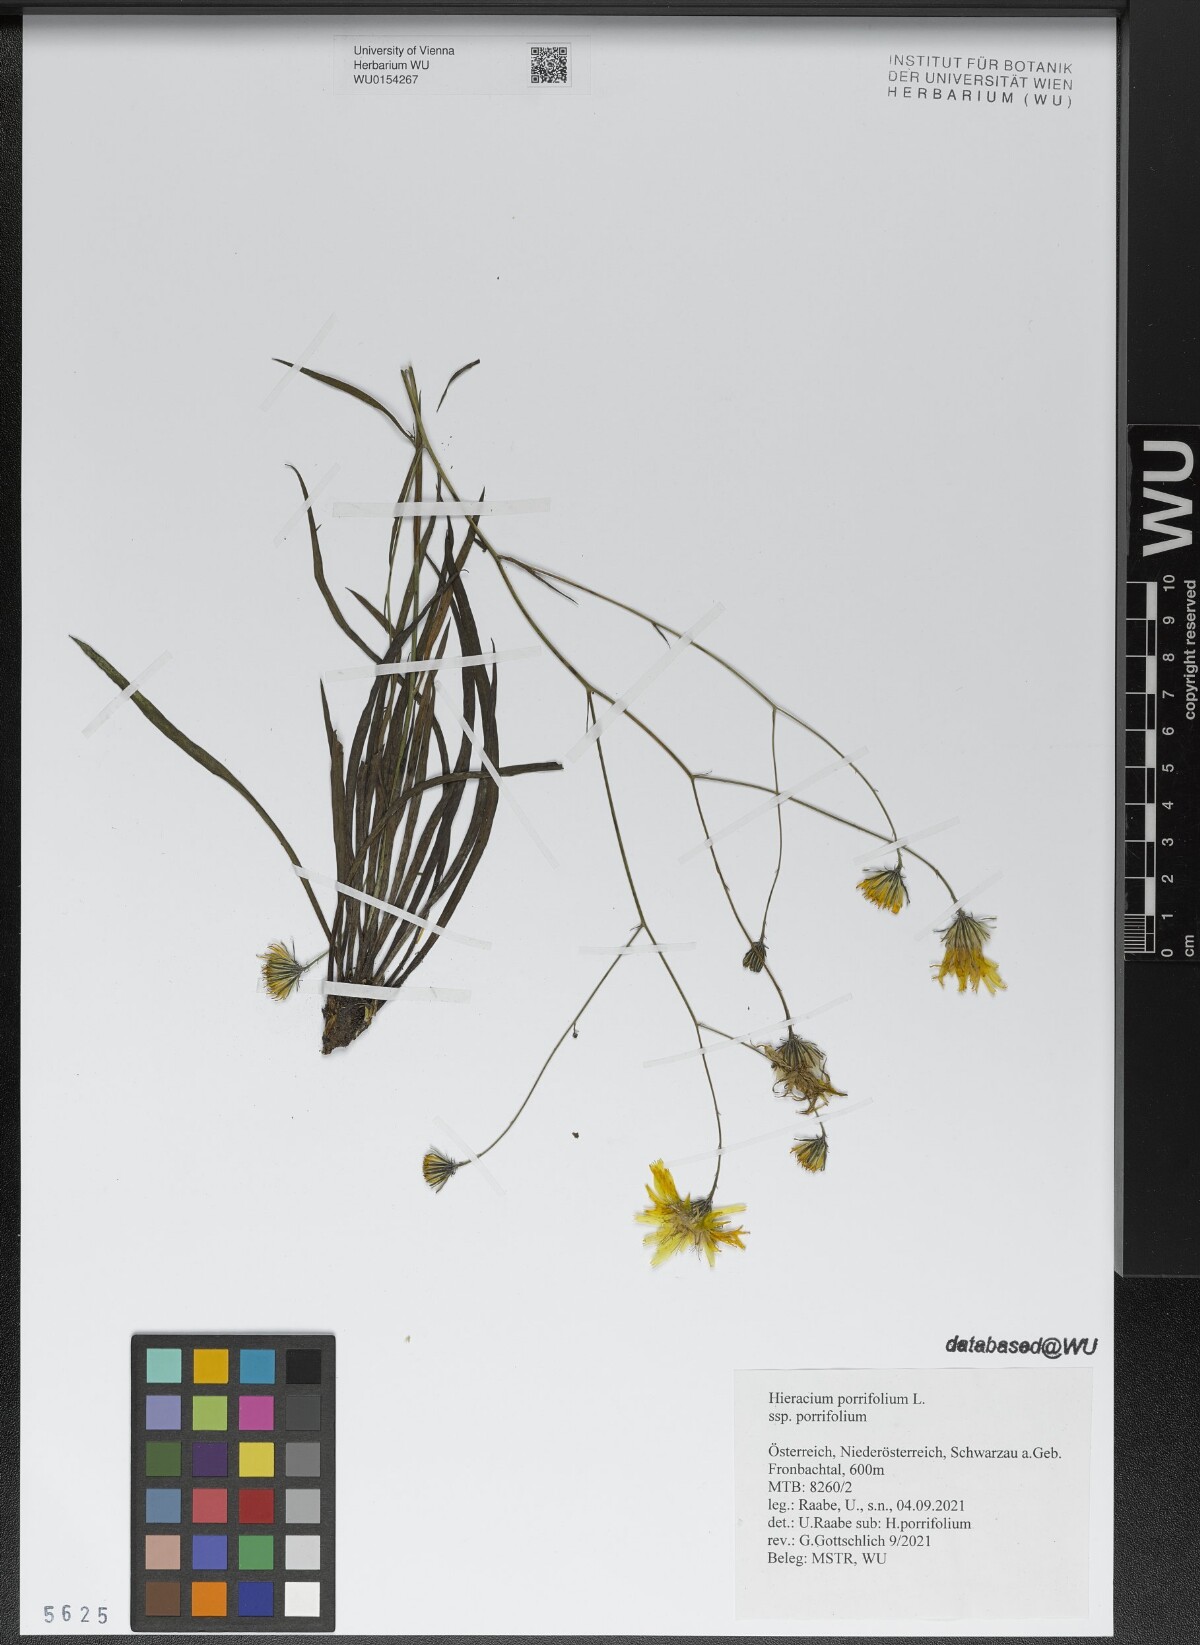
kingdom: Plantae
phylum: Tracheophyta
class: Magnoliopsida
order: Asterales
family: Asteraceae
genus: Hieracium
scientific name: Hieracium porrifolium
